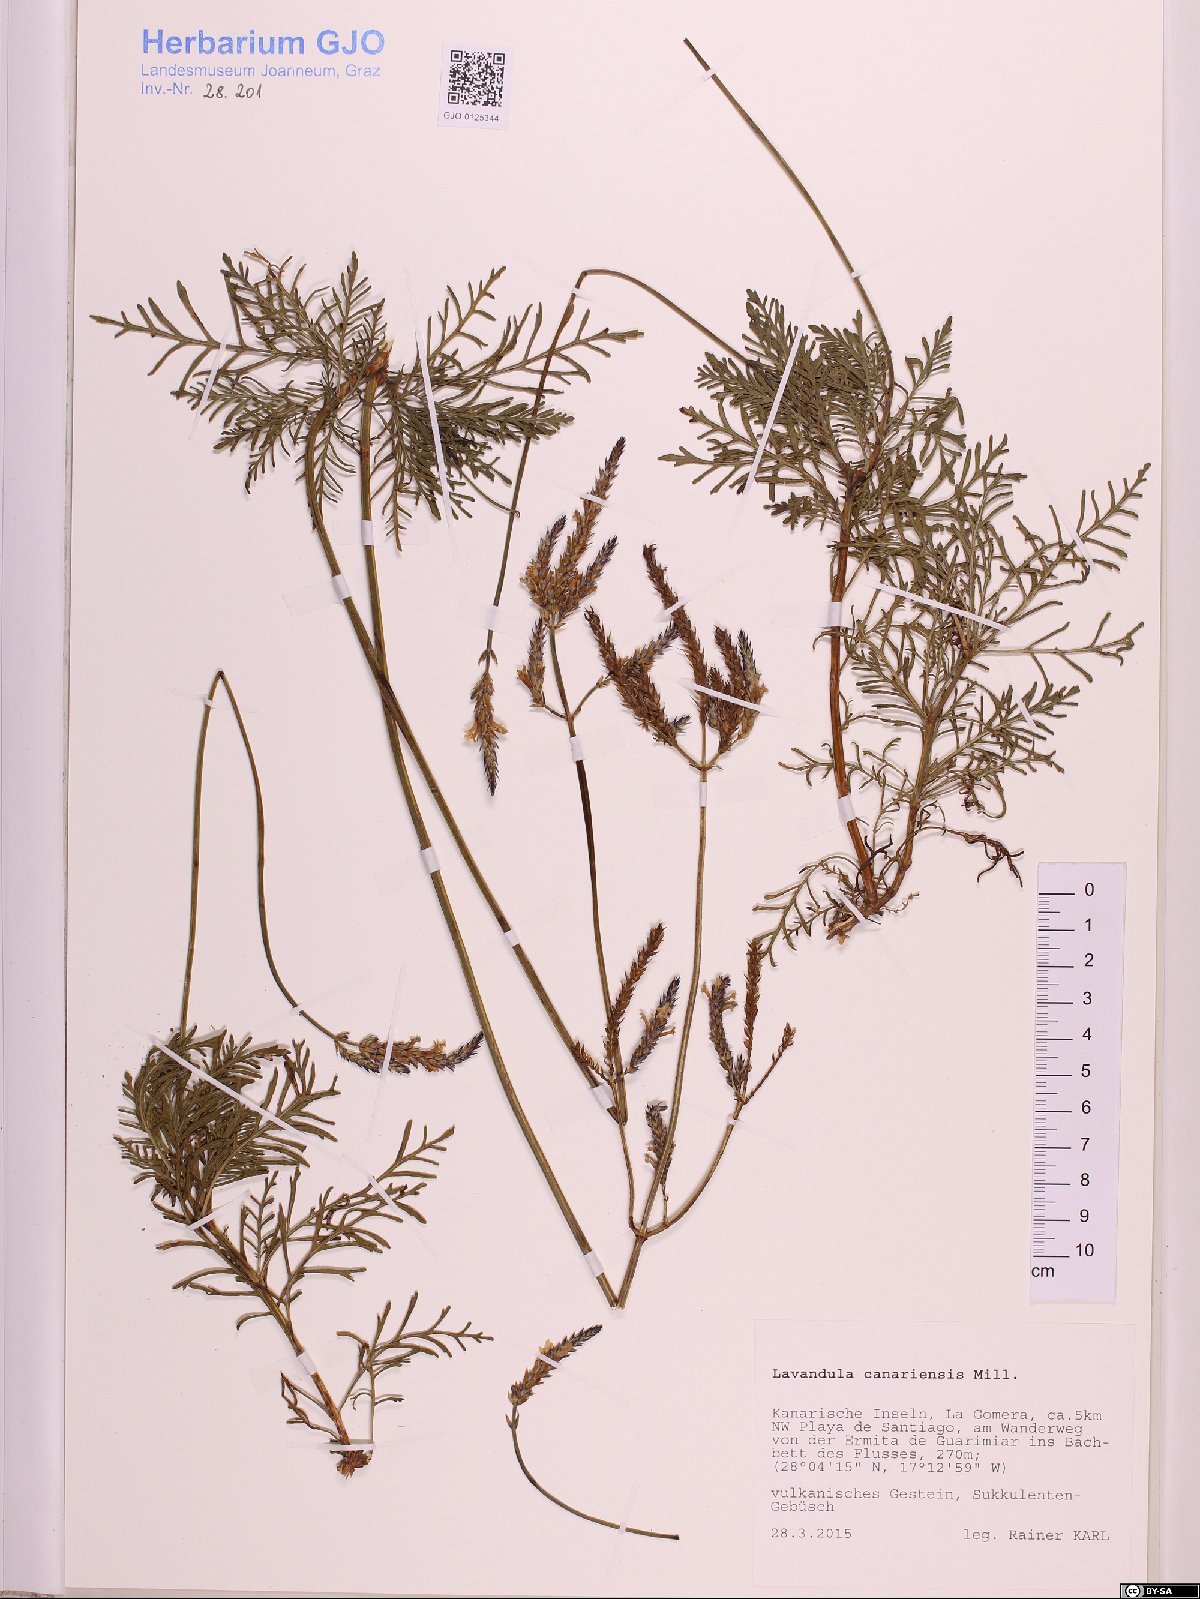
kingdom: Plantae
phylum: Tracheophyta
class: Magnoliopsida
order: Lamiales
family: Lamiaceae
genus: Lavandula
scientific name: Lavandula canariensis
